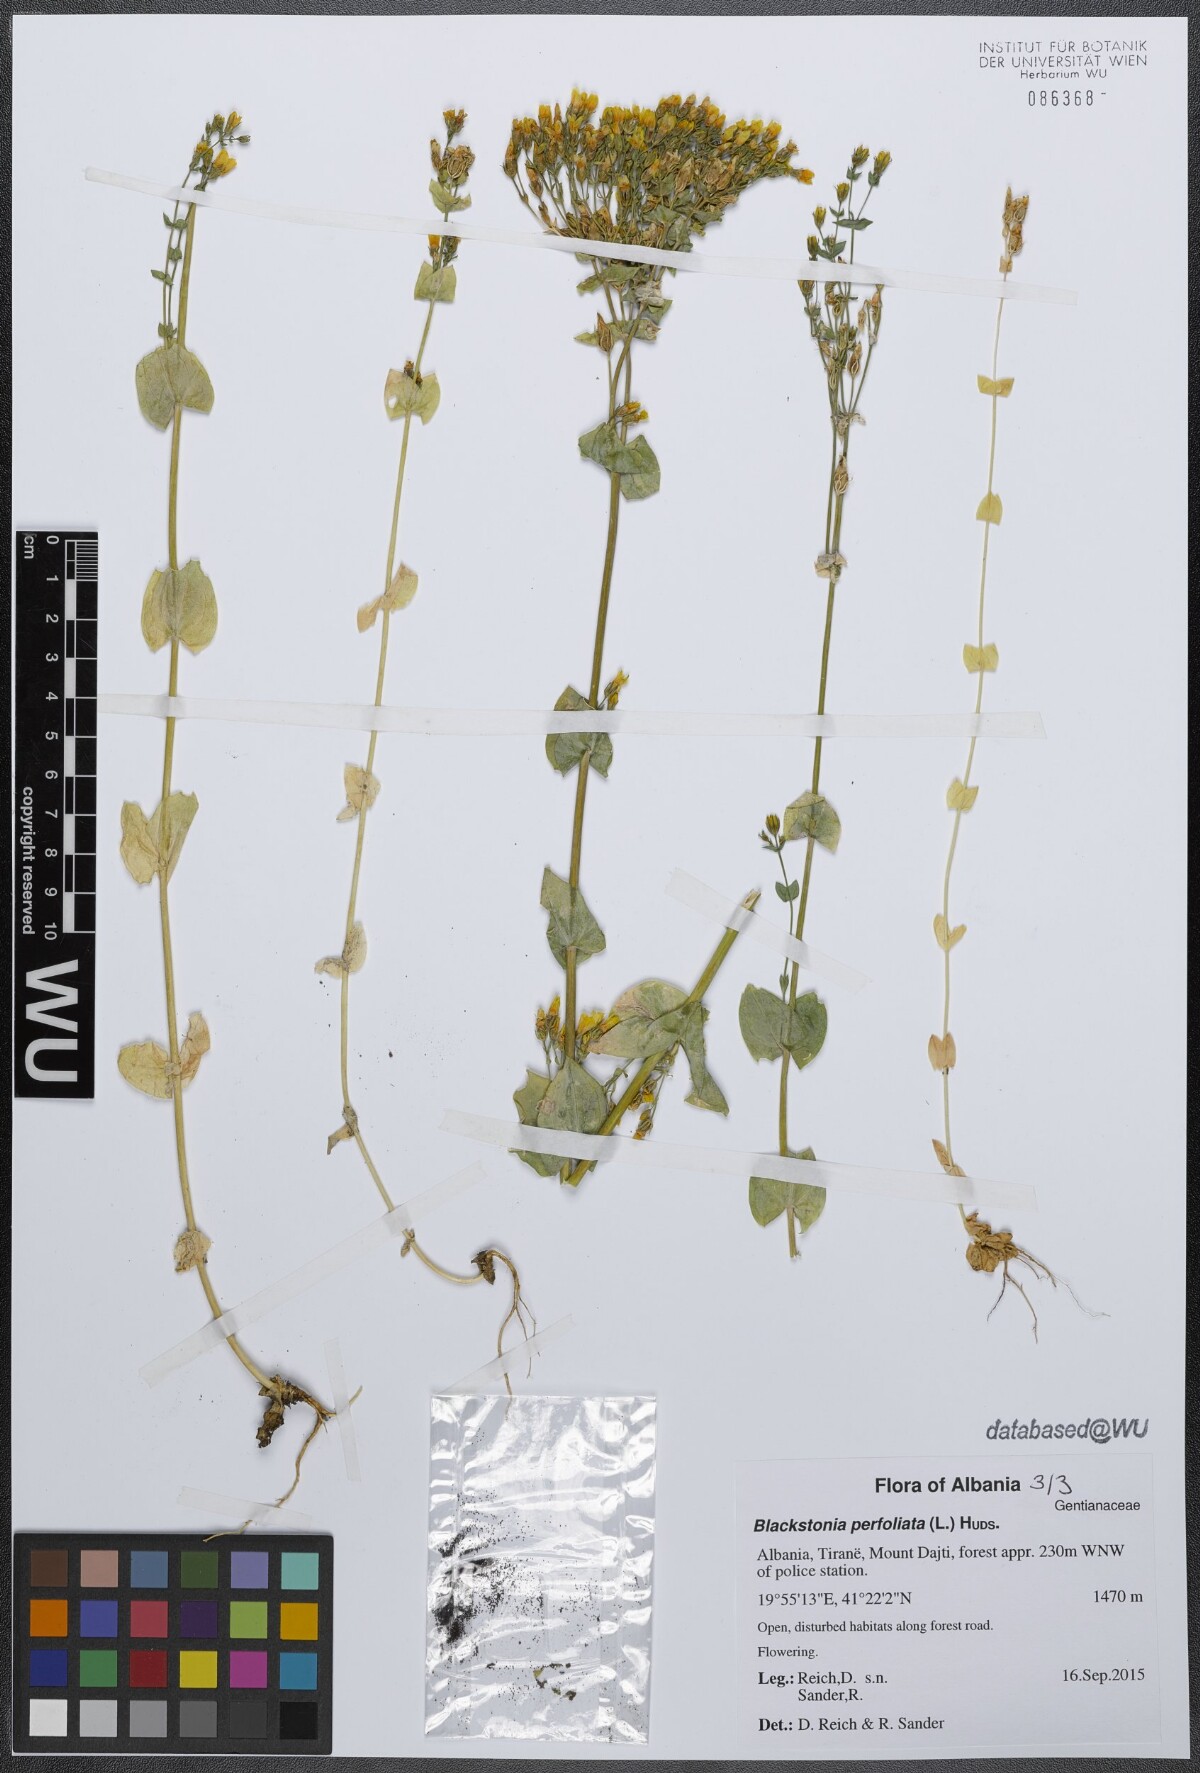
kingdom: Plantae
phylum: Tracheophyta
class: Magnoliopsida
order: Gentianales
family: Gentianaceae
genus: Blackstonia
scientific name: Blackstonia perfoliata
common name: Yellow-wort
